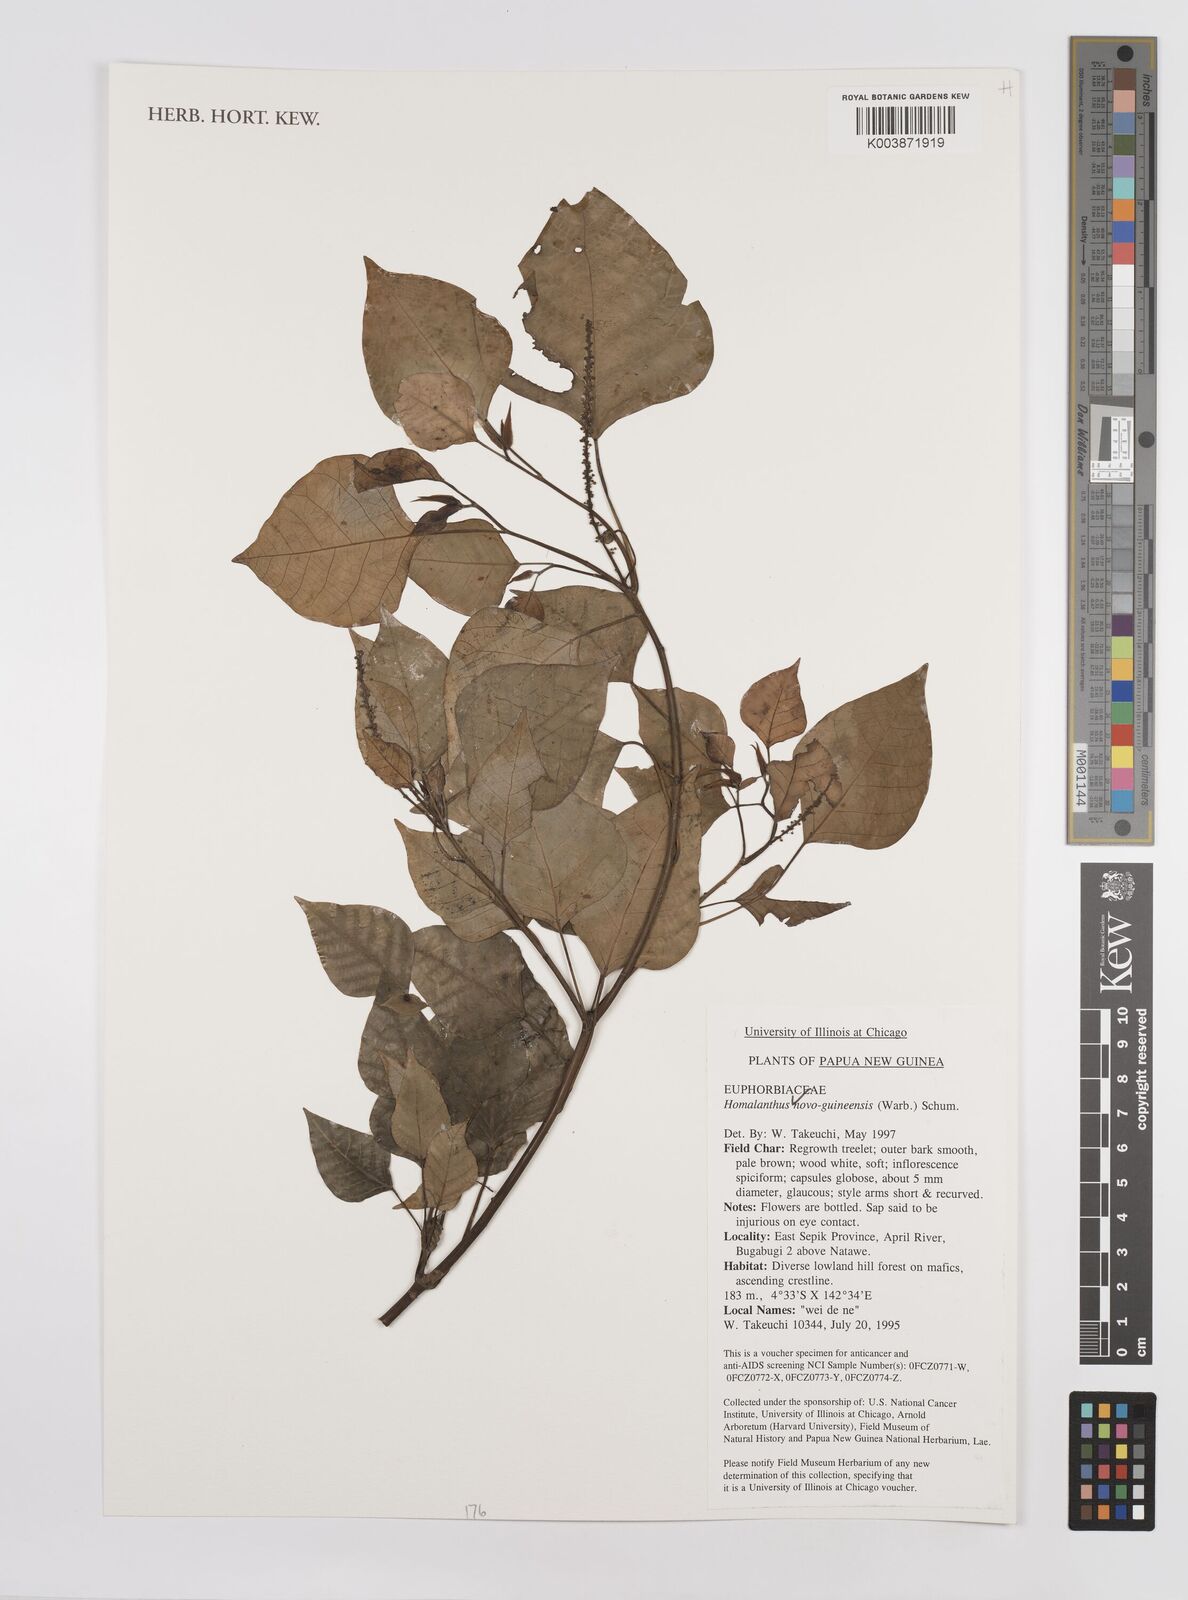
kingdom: Plantae
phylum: Tracheophyta
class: Magnoliopsida
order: Malpighiales
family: Euphorbiaceae
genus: Homalanthus
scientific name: Homalanthus novoguineensis
